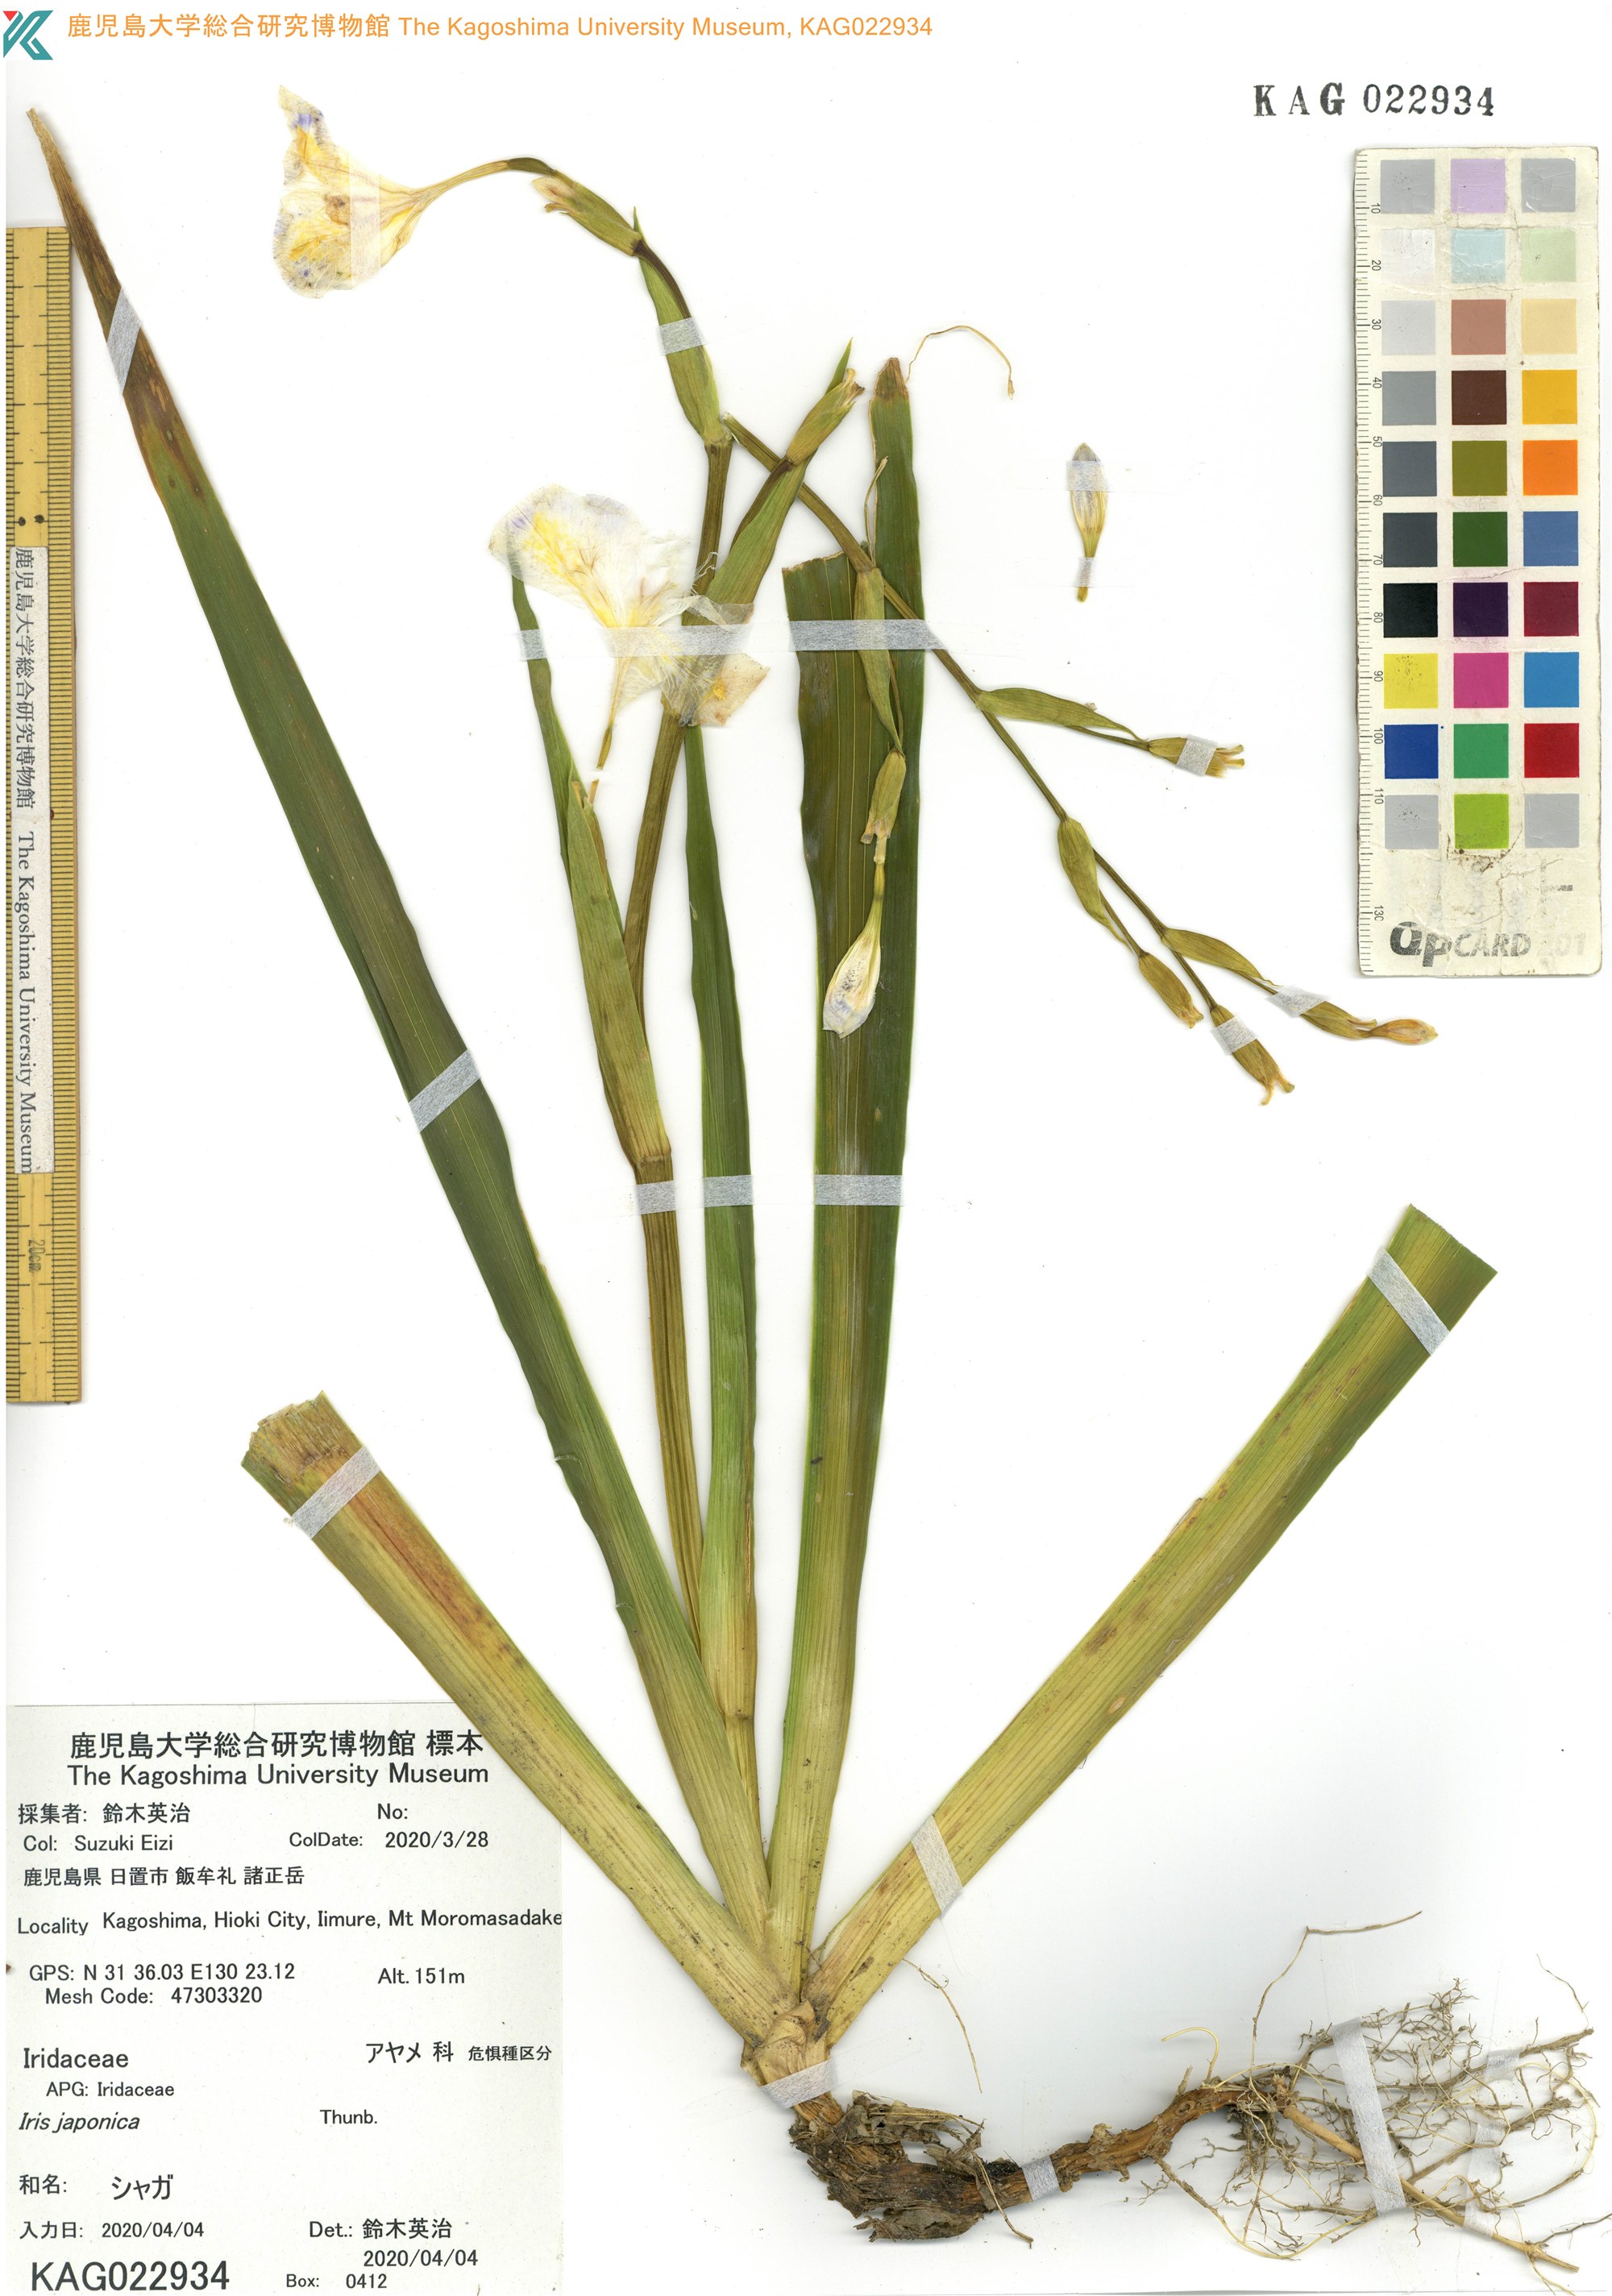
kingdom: Plantae
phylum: Tracheophyta
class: Liliopsida
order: Asparagales
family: Iridaceae
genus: Iris
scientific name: Iris japonica
